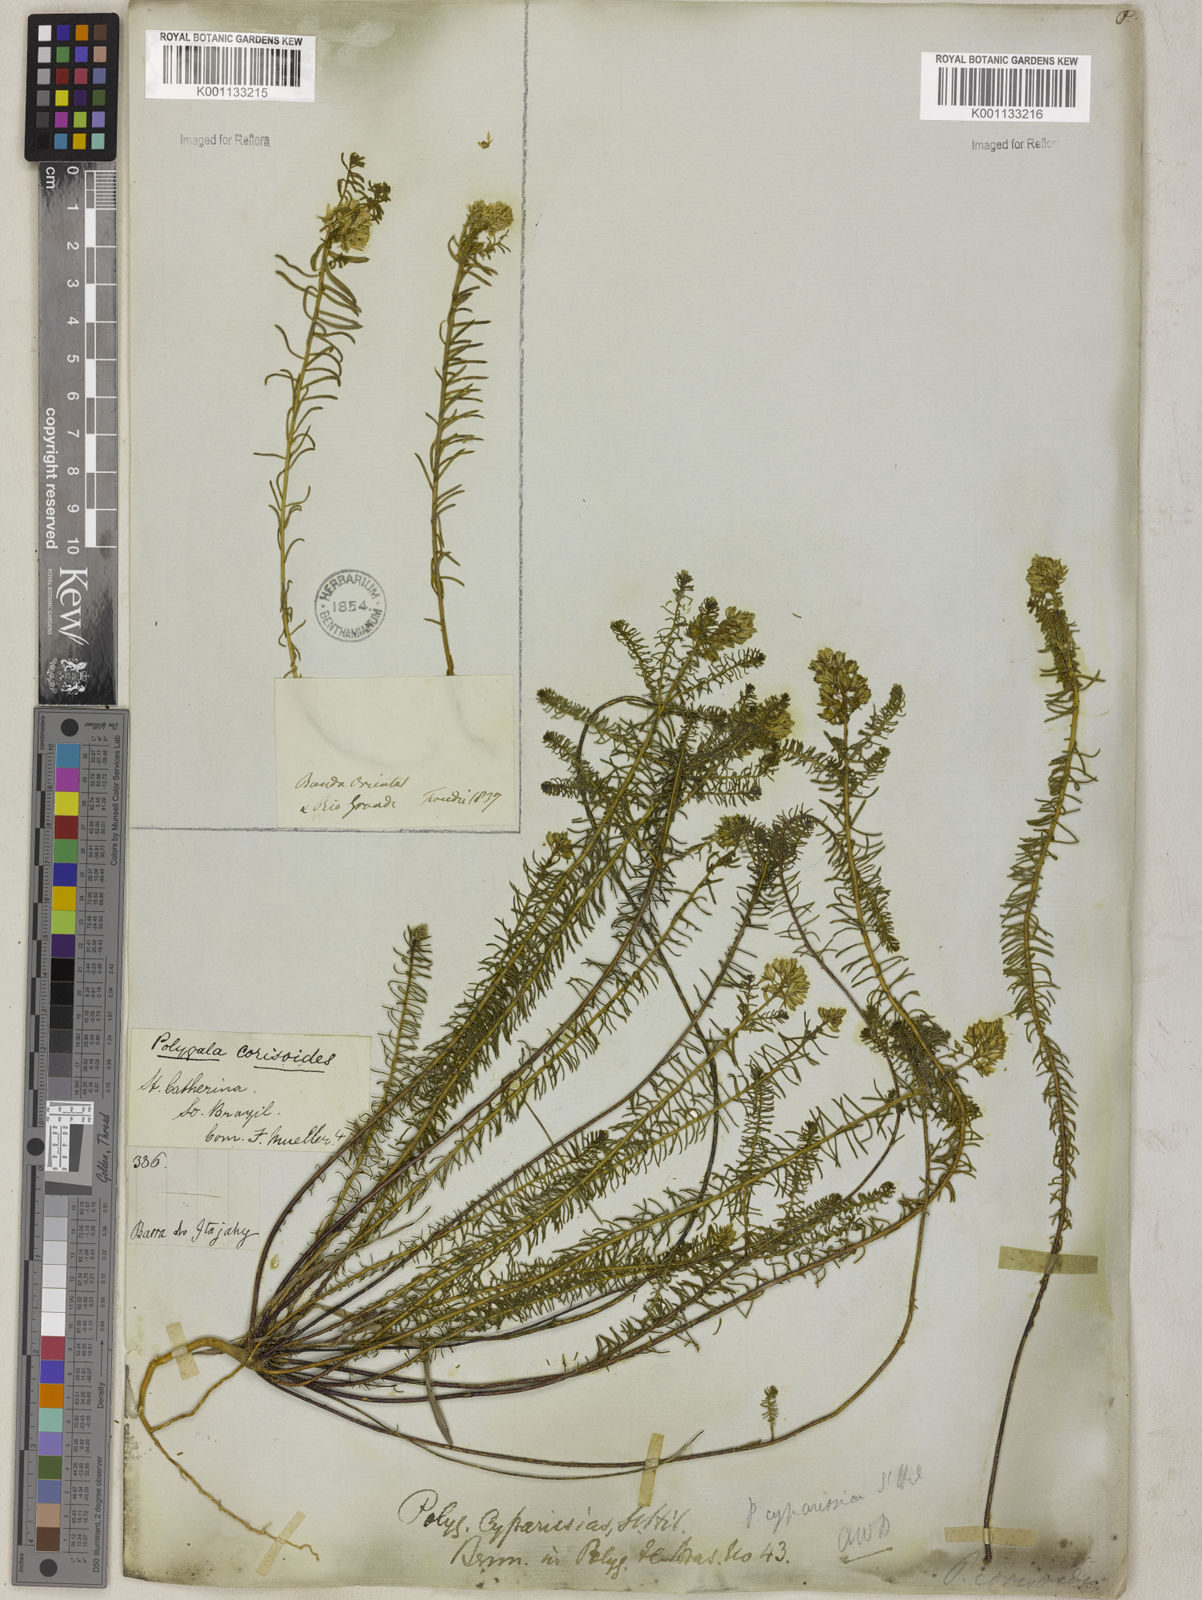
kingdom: Plantae
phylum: Tracheophyta
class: Magnoliopsida
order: Fabales
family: Polygalaceae
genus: Polygala
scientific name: Polygala cyparissias
